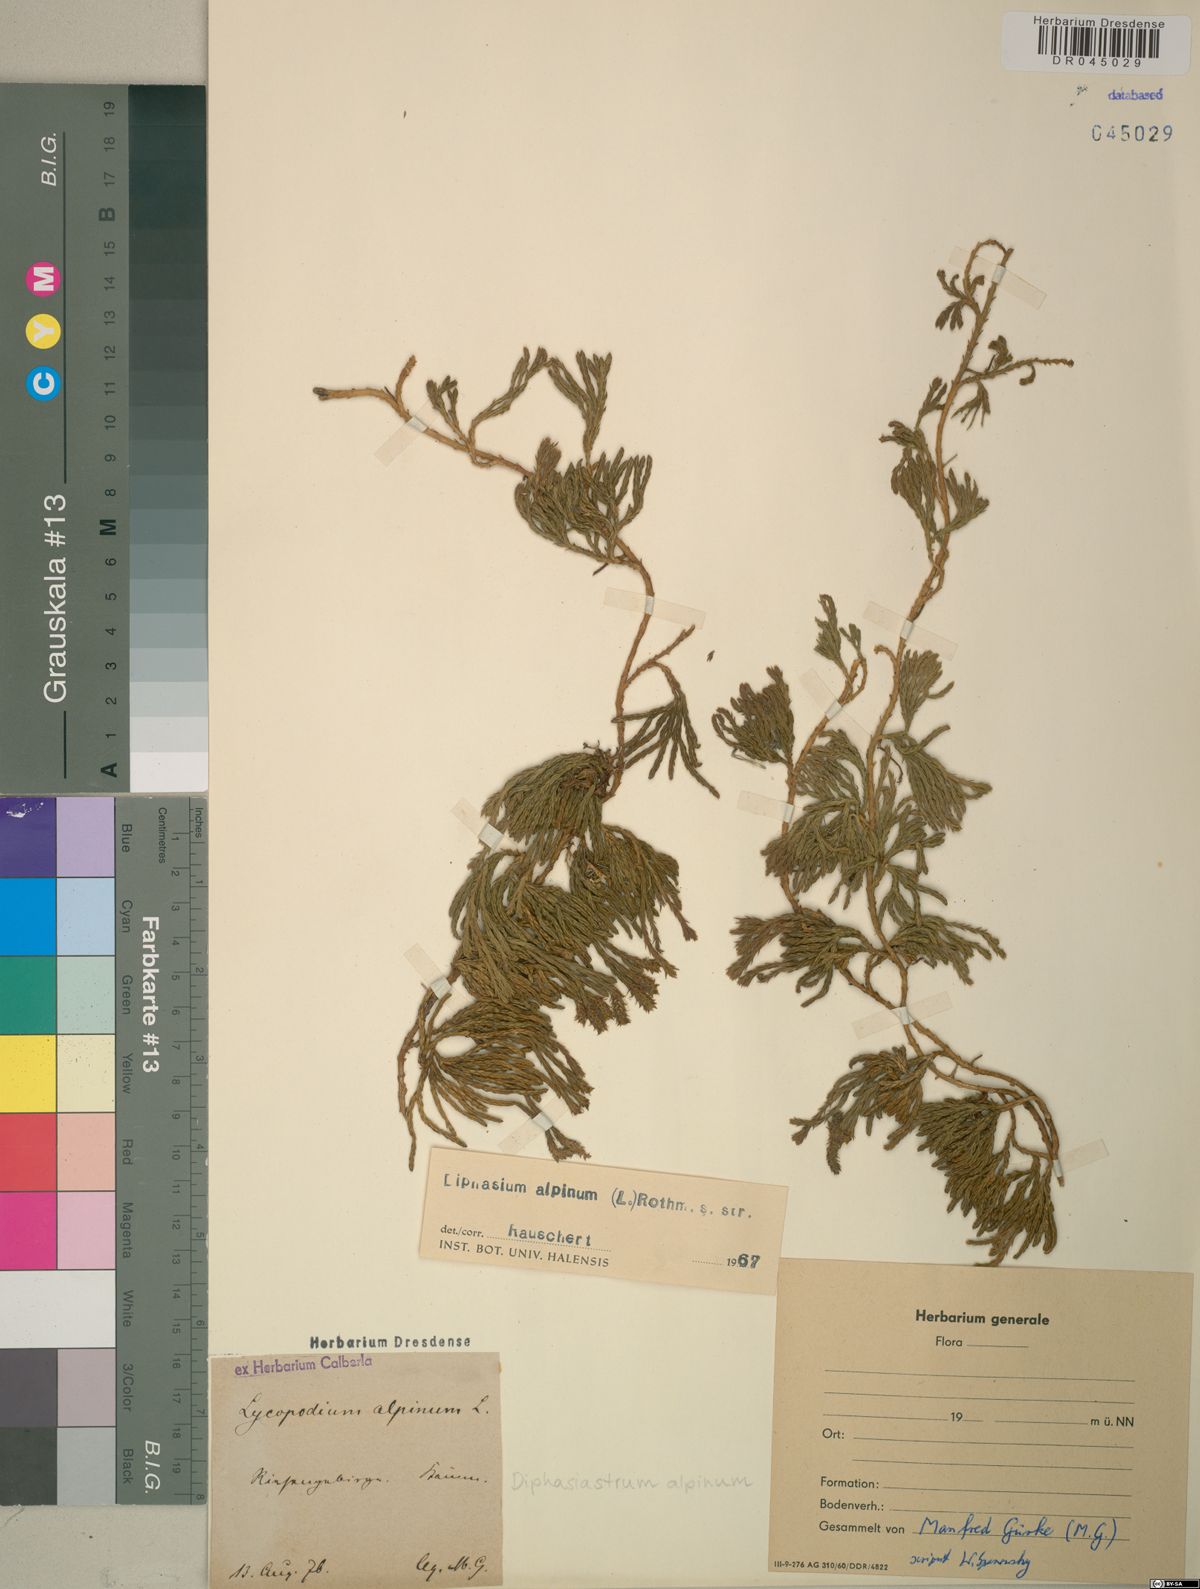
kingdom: Plantae
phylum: Tracheophyta
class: Lycopodiopsida
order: Lycopodiales
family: Lycopodiaceae
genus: Diphasiastrum
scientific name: Diphasiastrum alpinum
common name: Alpine clubmoss
